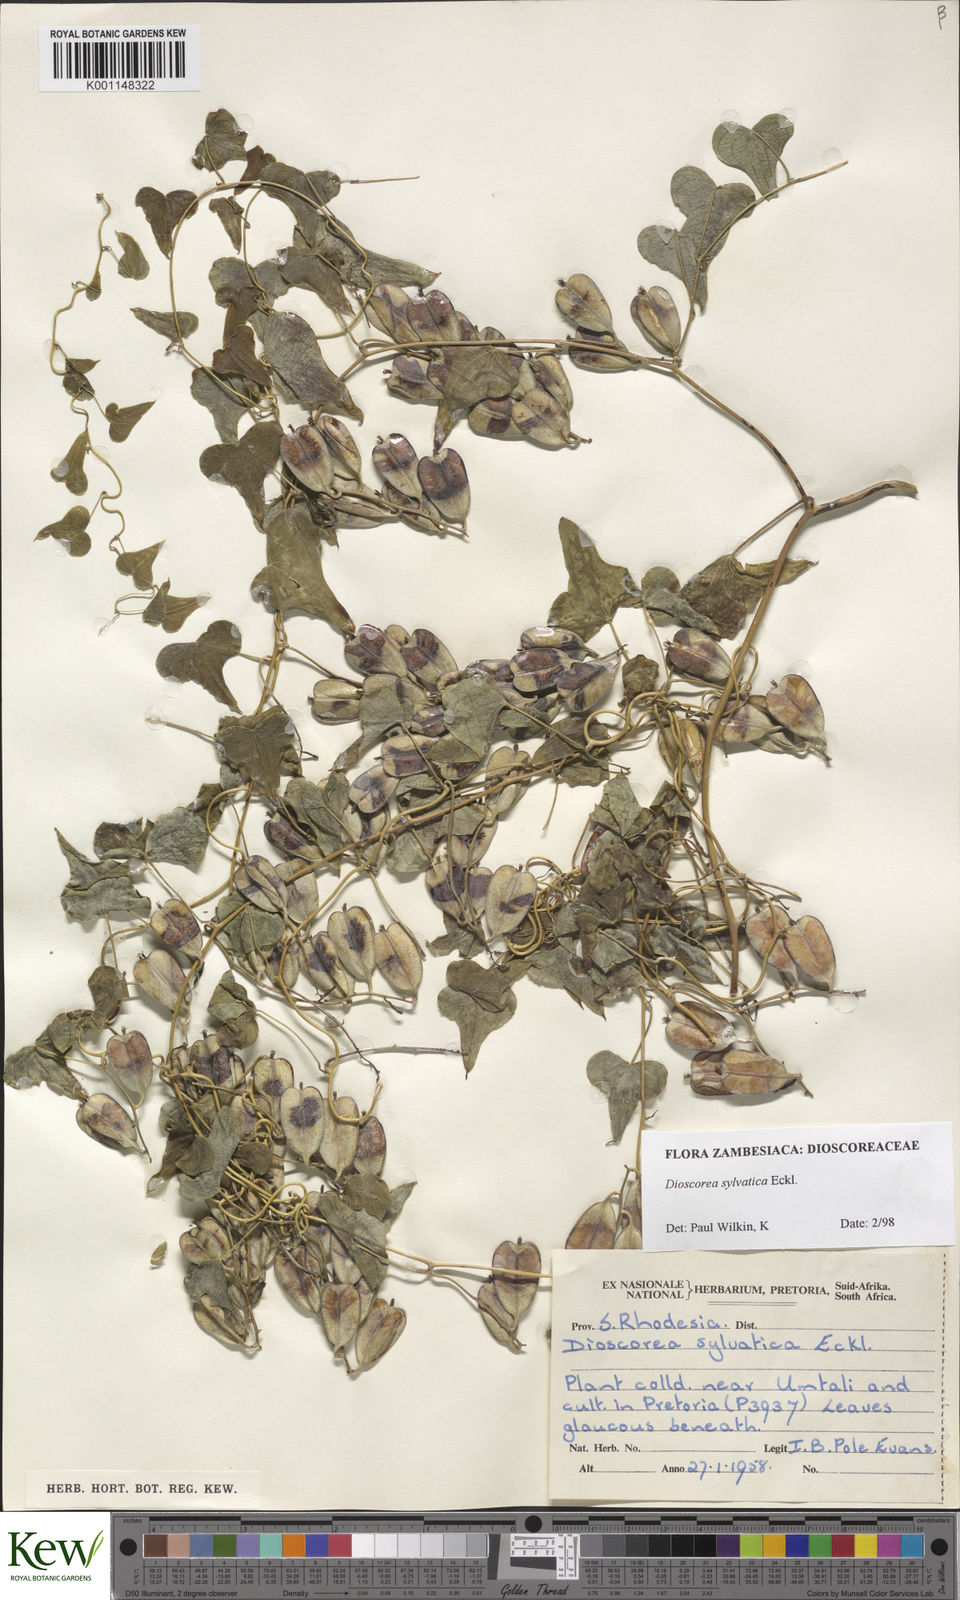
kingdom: Plantae
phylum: Tracheophyta
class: Liliopsida
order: Dioscoreales
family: Dioscoreaceae
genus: Dioscorea
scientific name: Dioscorea sylvatica
